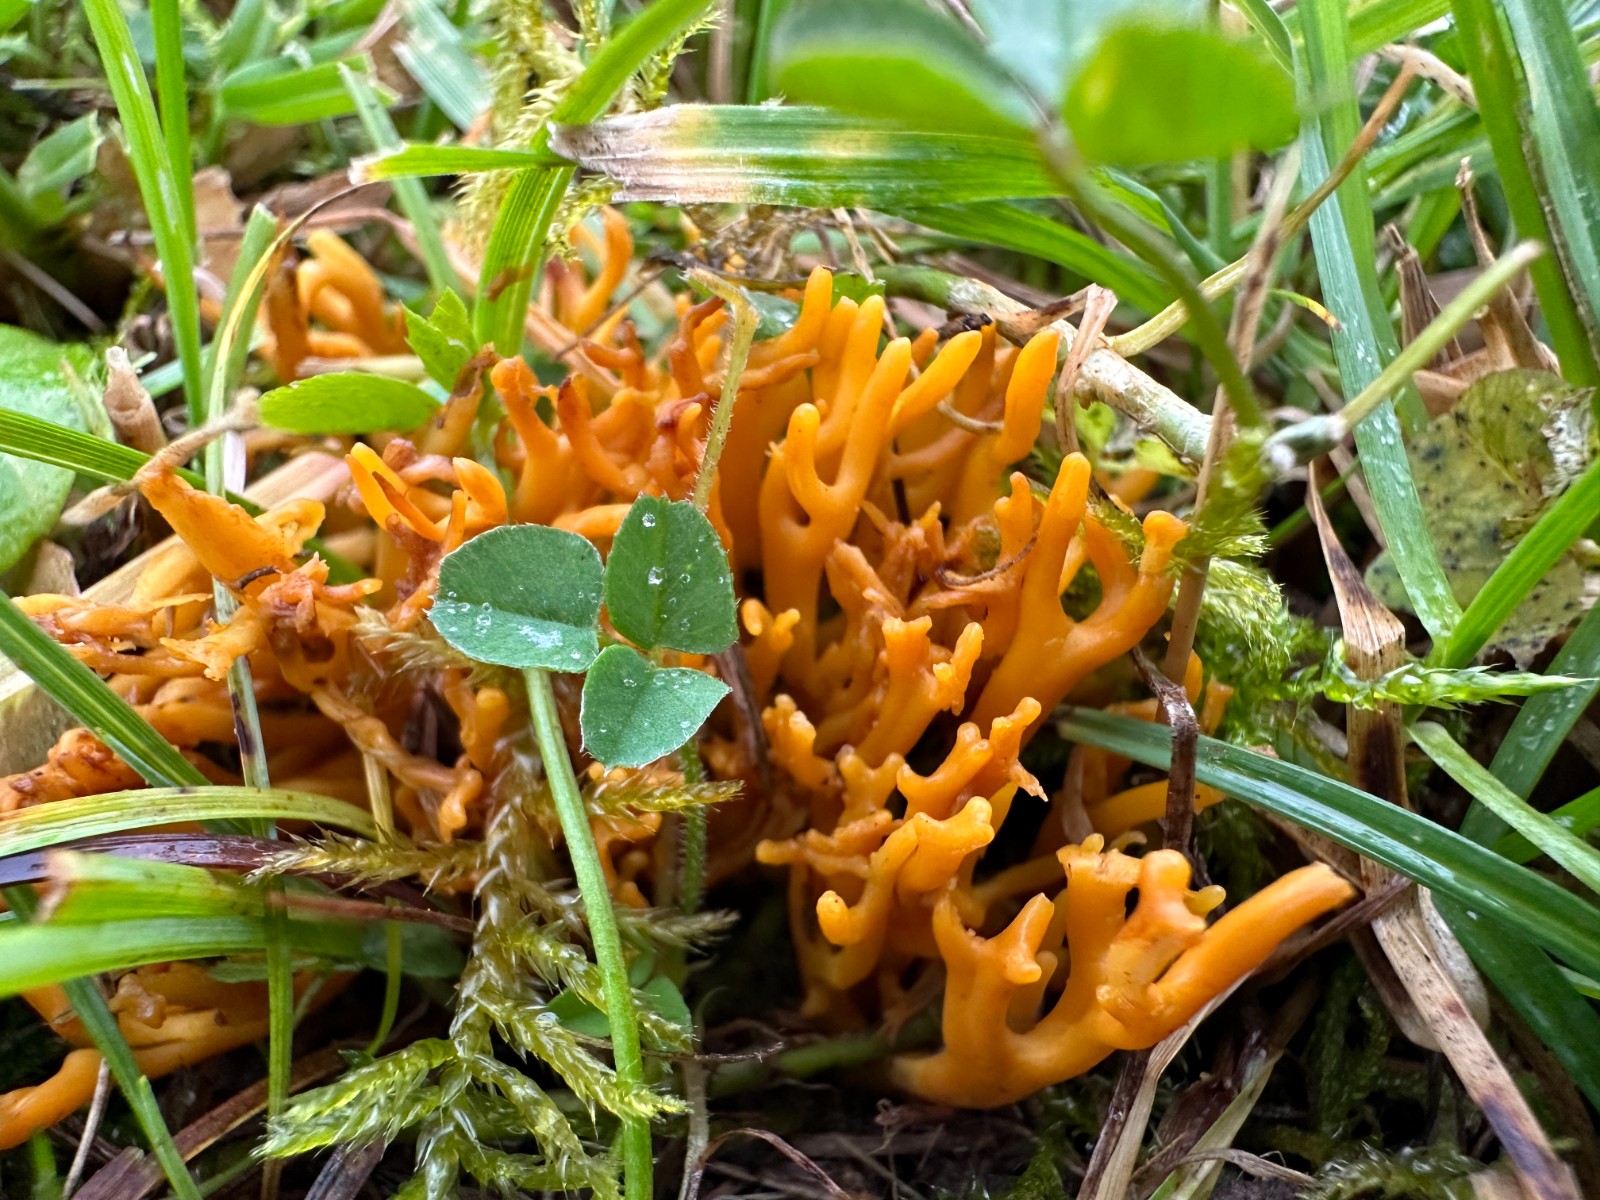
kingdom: Fungi
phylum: Basidiomycota
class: Agaricomycetes
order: Agaricales
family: Clavariaceae
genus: Clavulinopsis
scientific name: Clavulinopsis corniculata
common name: eng-køllesvamp
